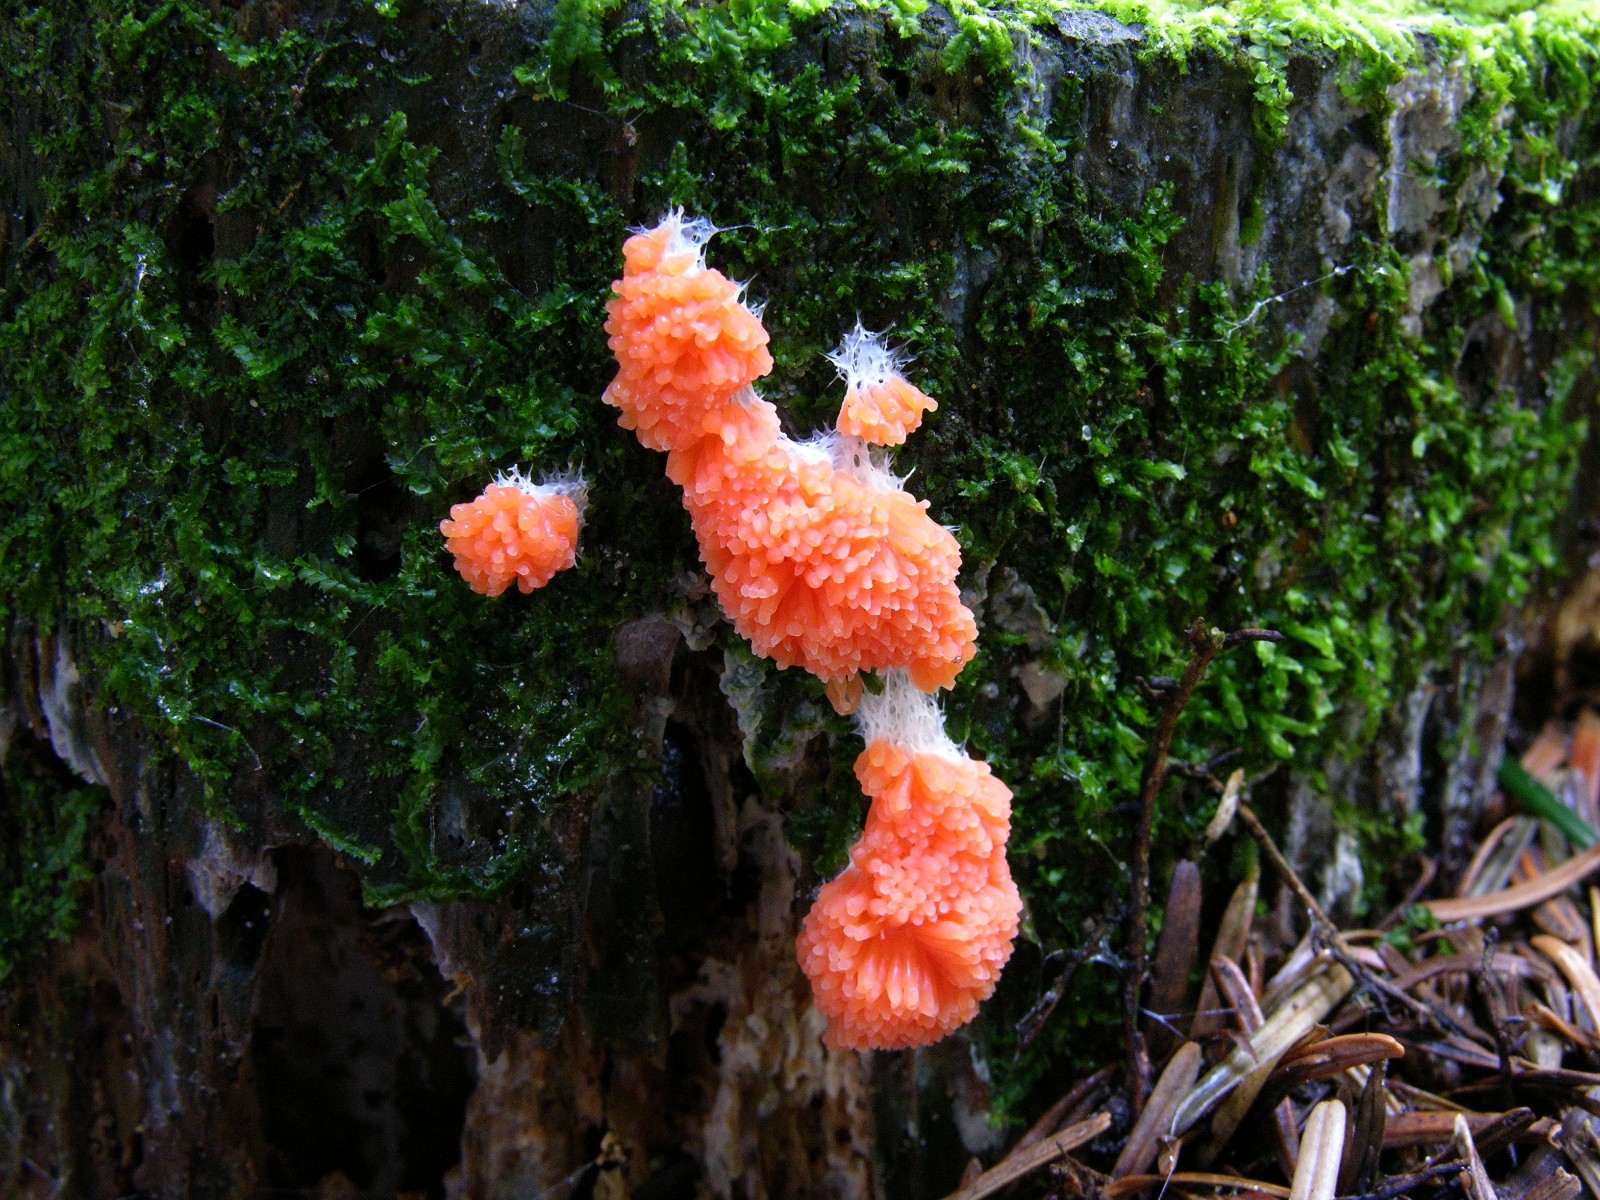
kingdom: Protozoa
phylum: Mycetozoa
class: Myxomycetes
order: Cribrariales
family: Tubiferaceae
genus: Tubifera
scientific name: Tubifera ferruginosa
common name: kanel-støvrør
